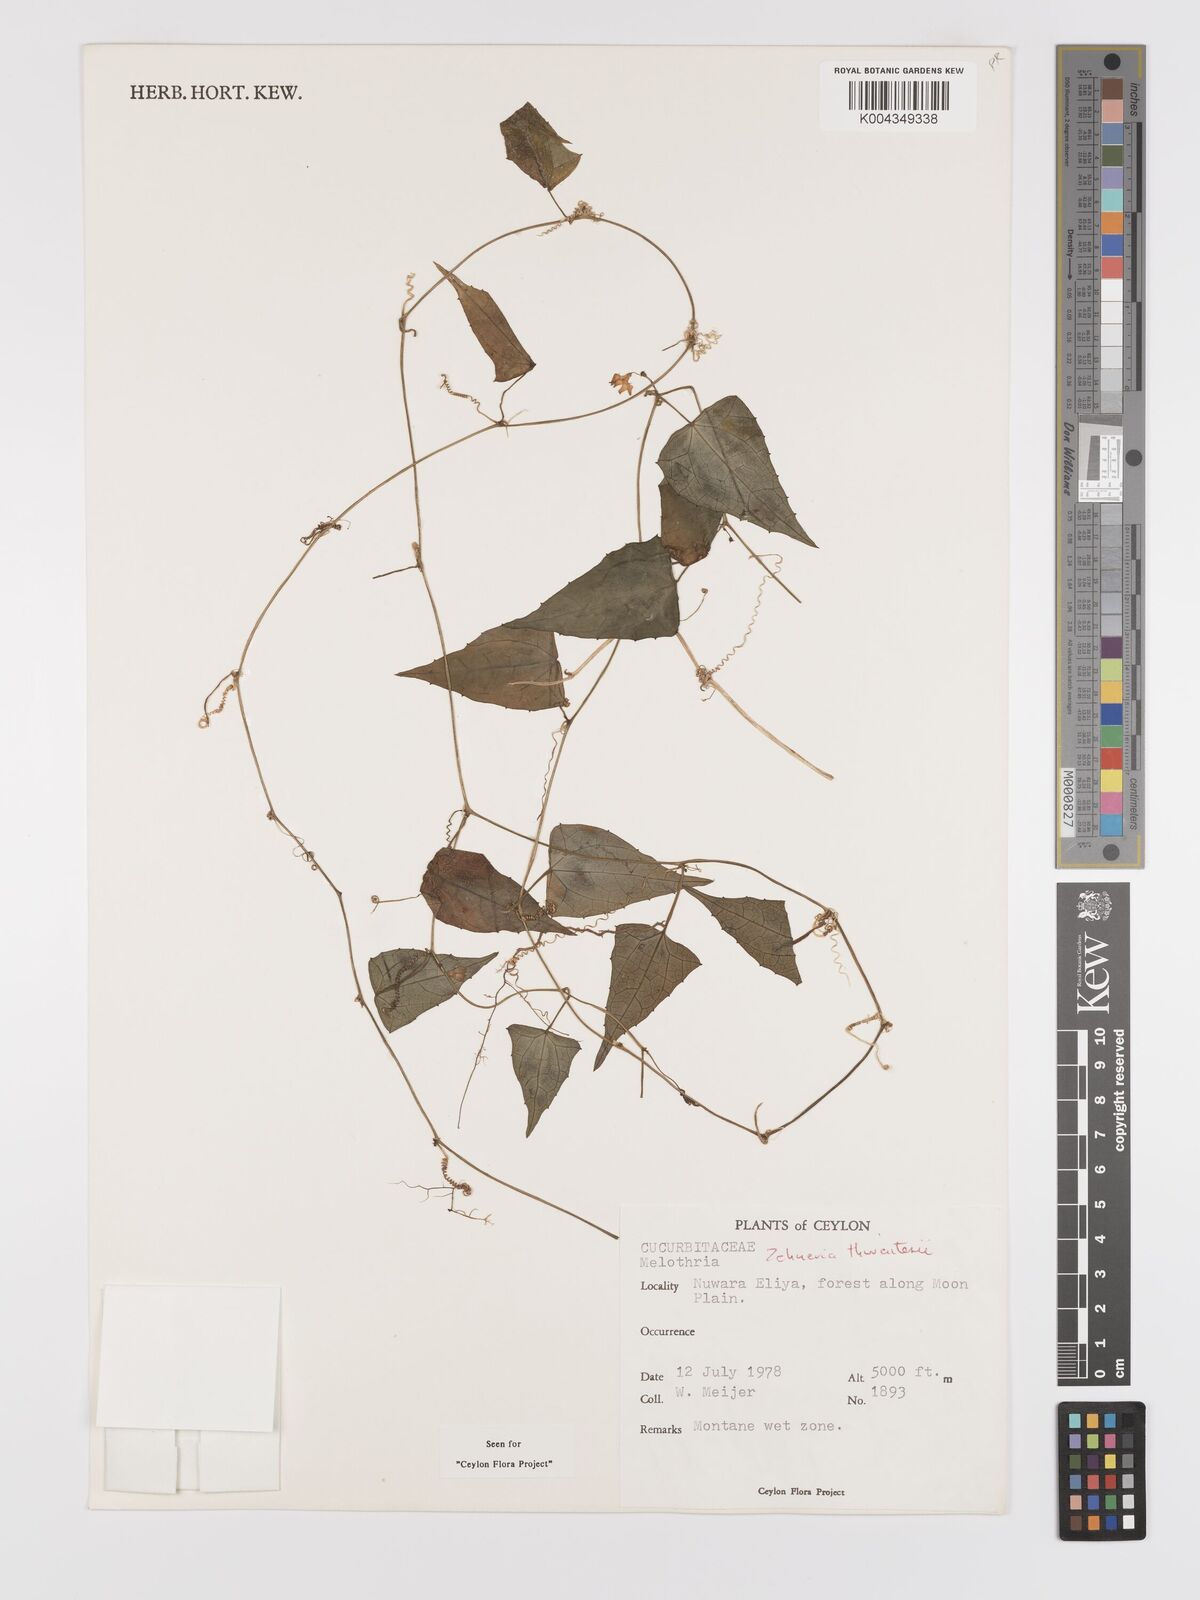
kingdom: Plantae
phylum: Tracheophyta
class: Magnoliopsida
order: Cucurbitales
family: Cucurbitaceae
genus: Zehneria
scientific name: Zehneria thwaitesii
